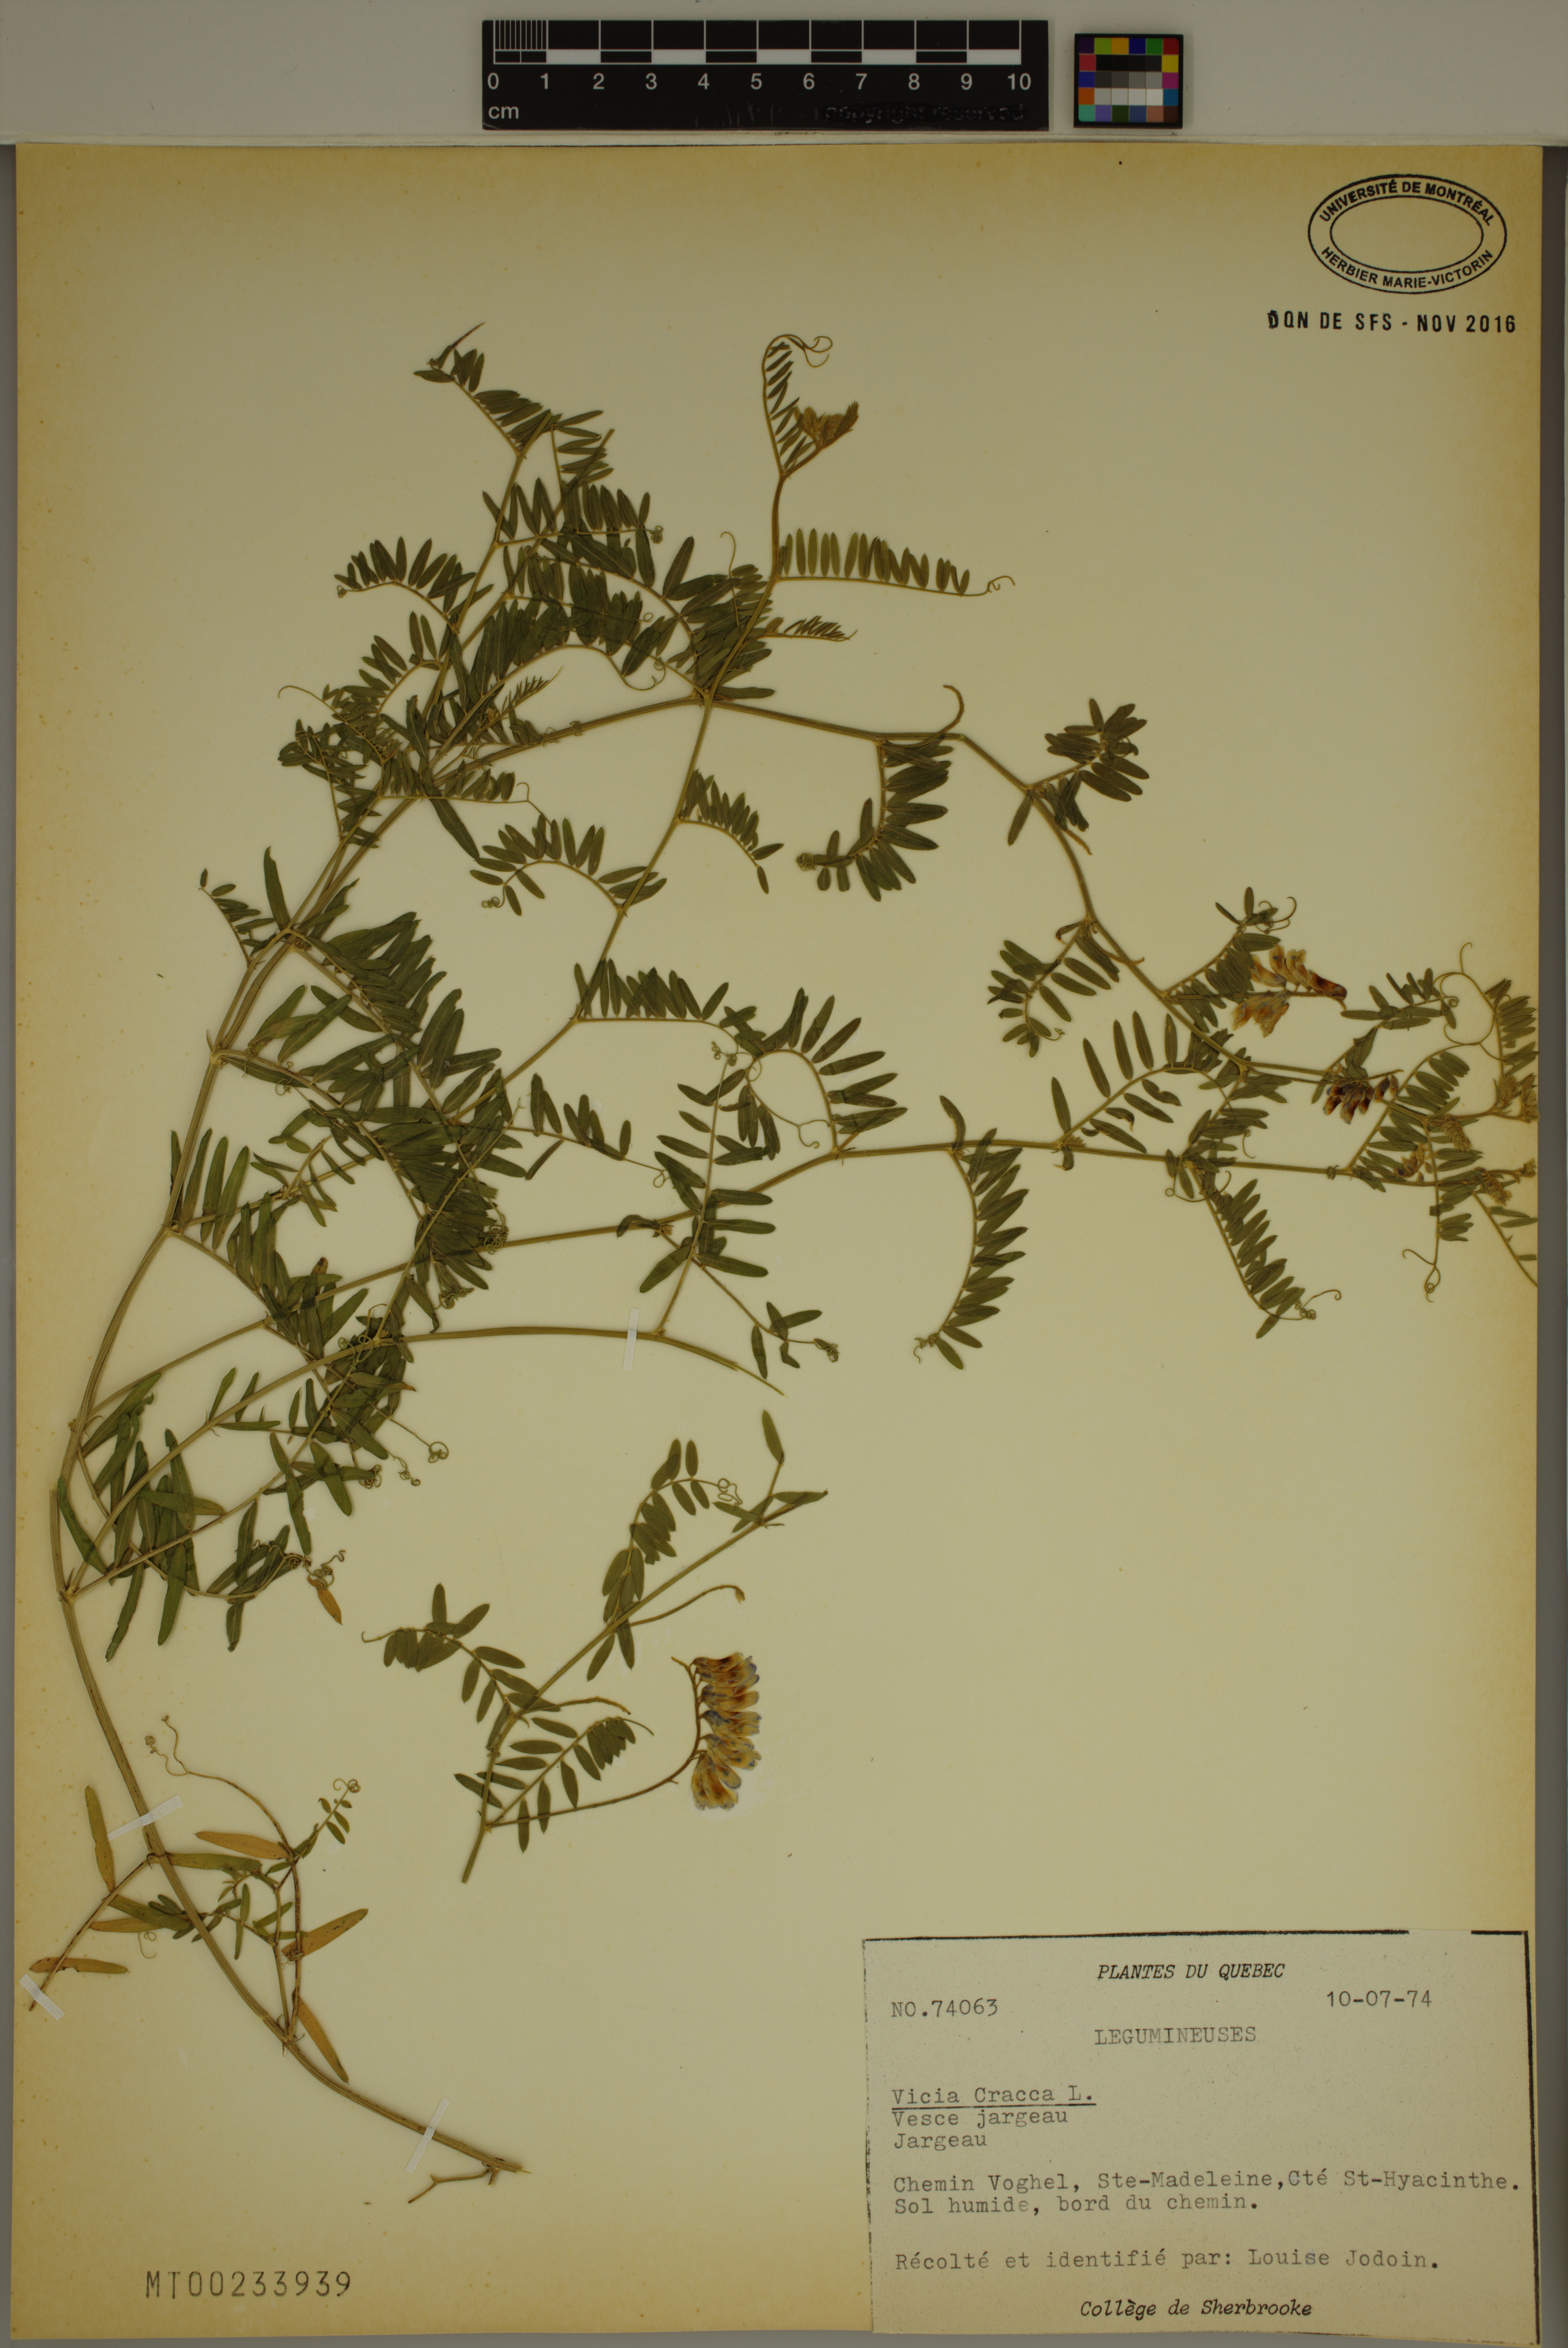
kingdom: Plantae
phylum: Tracheophyta
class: Magnoliopsida
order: Fabales
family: Fabaceae
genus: Vicia
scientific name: Vicia cracca
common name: Bird vetch
